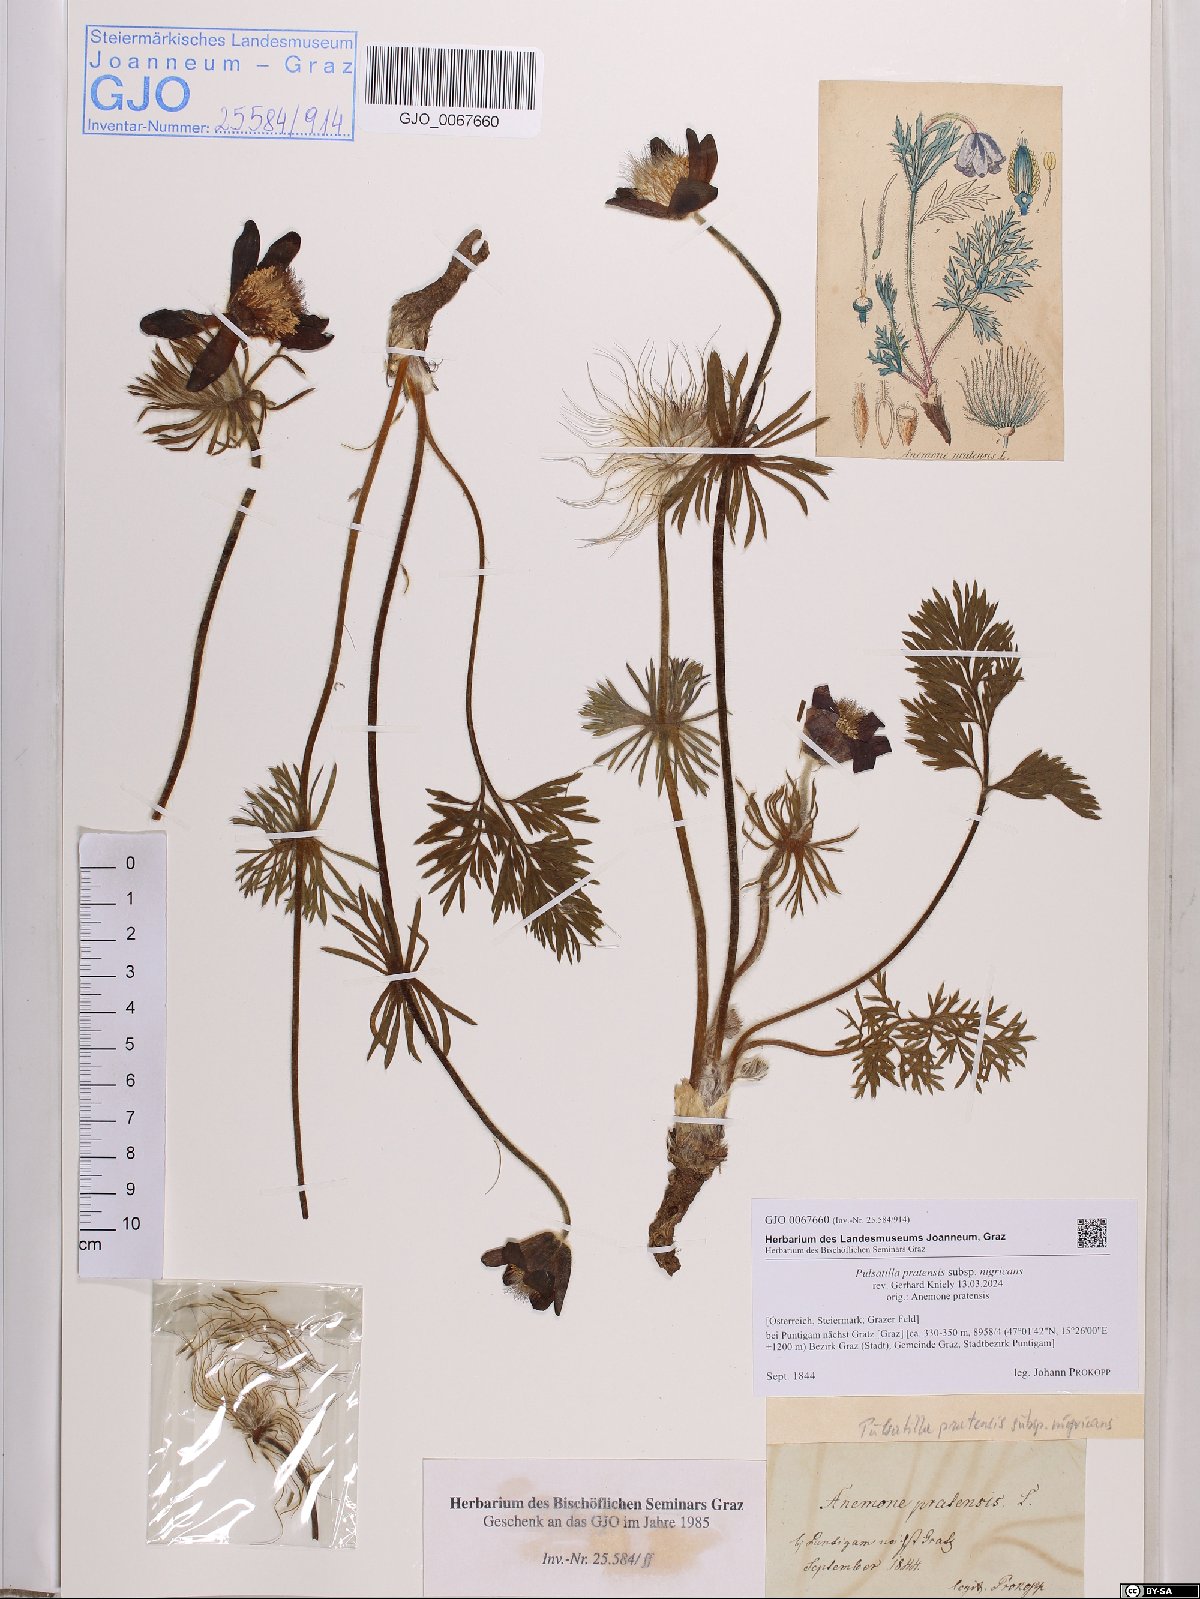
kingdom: Plantae
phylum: Tracheophyta
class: Magnoliopsida
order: Ranunculales
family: Ranunculaceae
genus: Pulsatilla
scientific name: Pulsatilla pratensis
